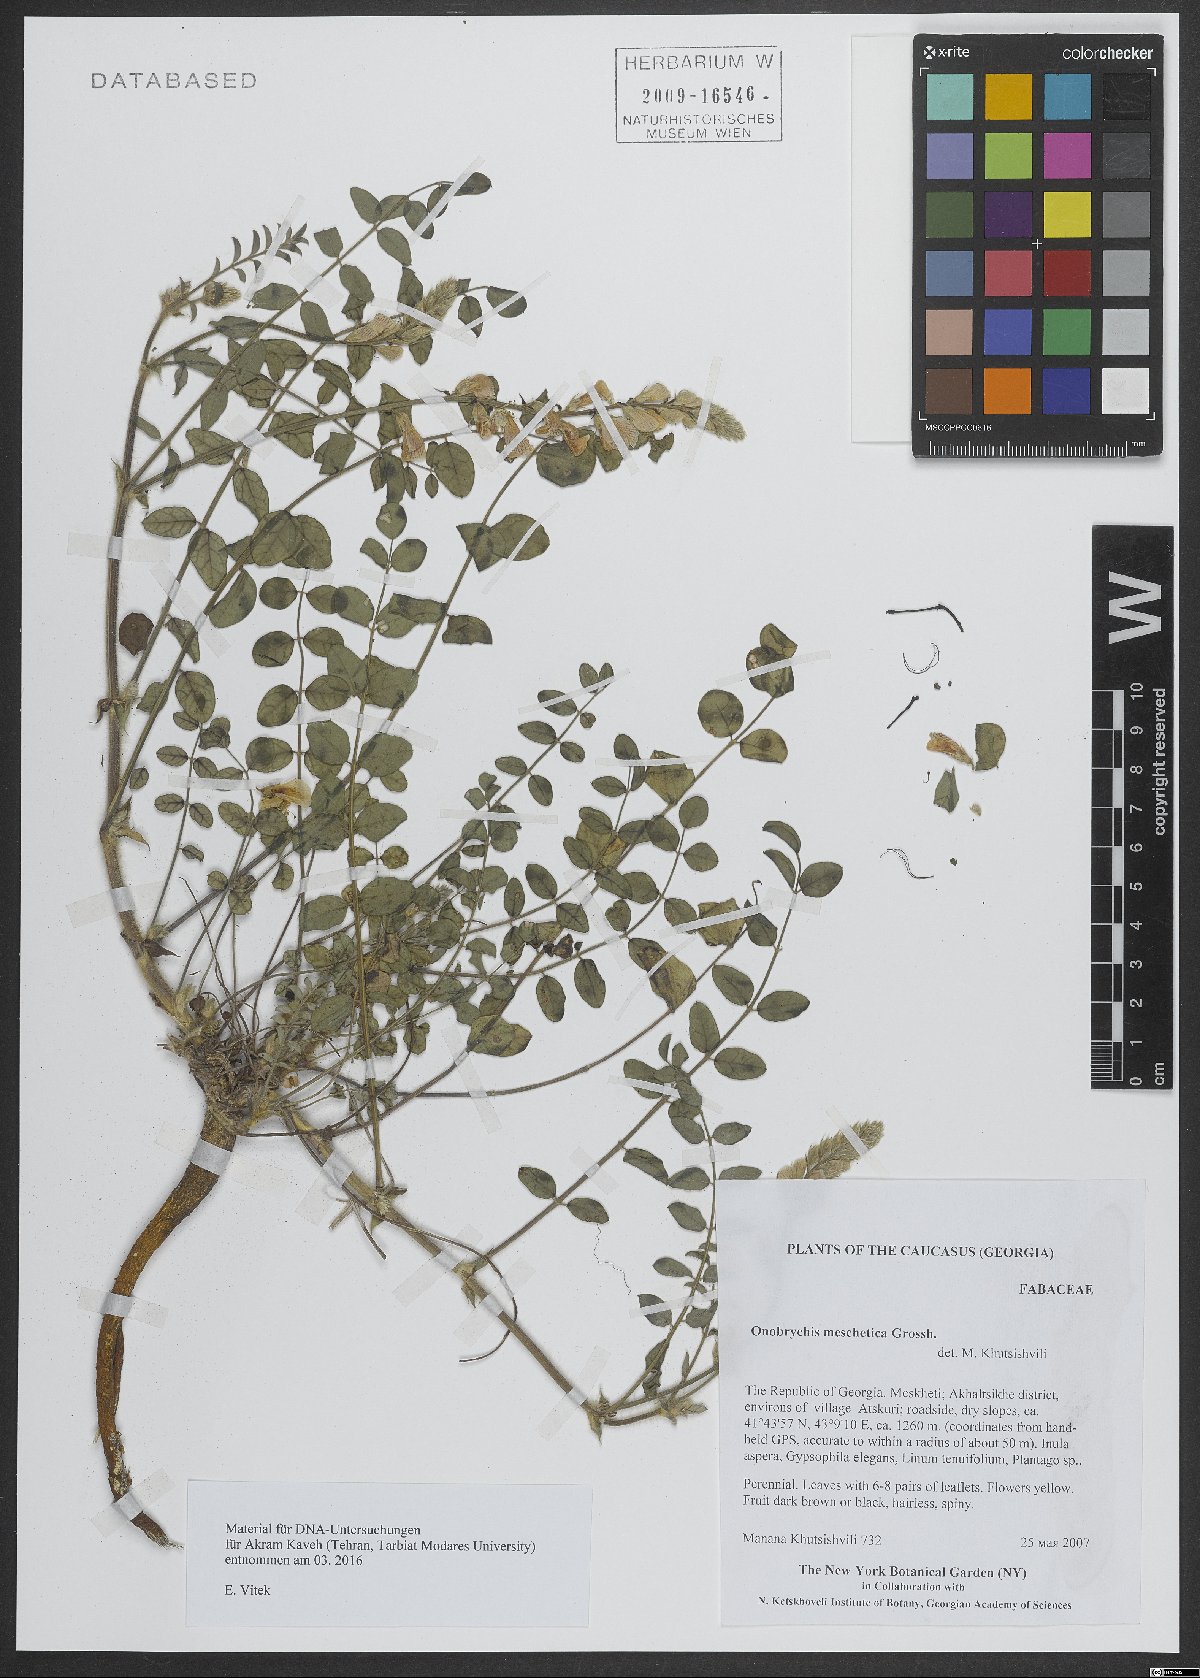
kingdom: Plantae
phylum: Tracheophyta
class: Magnoliopsida
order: Fabales
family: Fabaceae
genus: Onobrychis
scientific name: Onobrychis meschetica
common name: Meskhetian sainfoin
